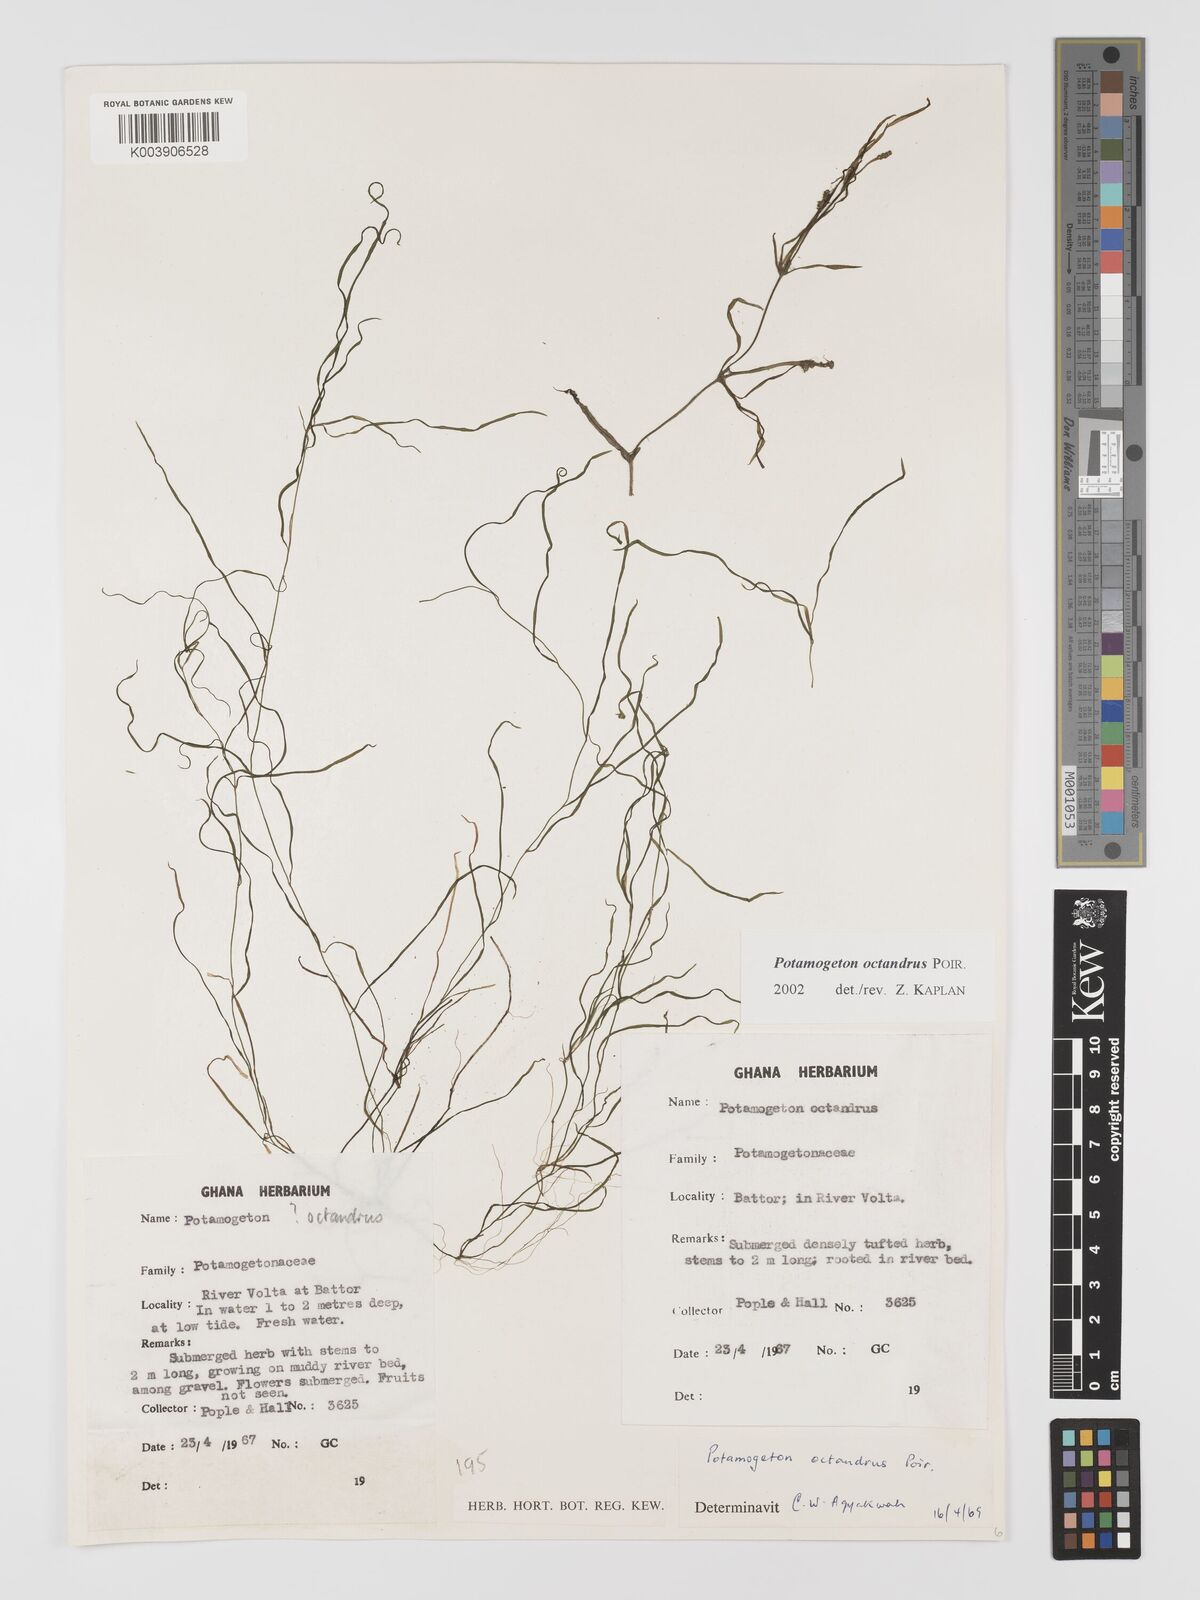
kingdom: Plantae
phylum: Tracheophyta
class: Liliopsida
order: Alismatales
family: Potamogetonaceae
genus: Potamogeton
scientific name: Potamogeton octandrus
